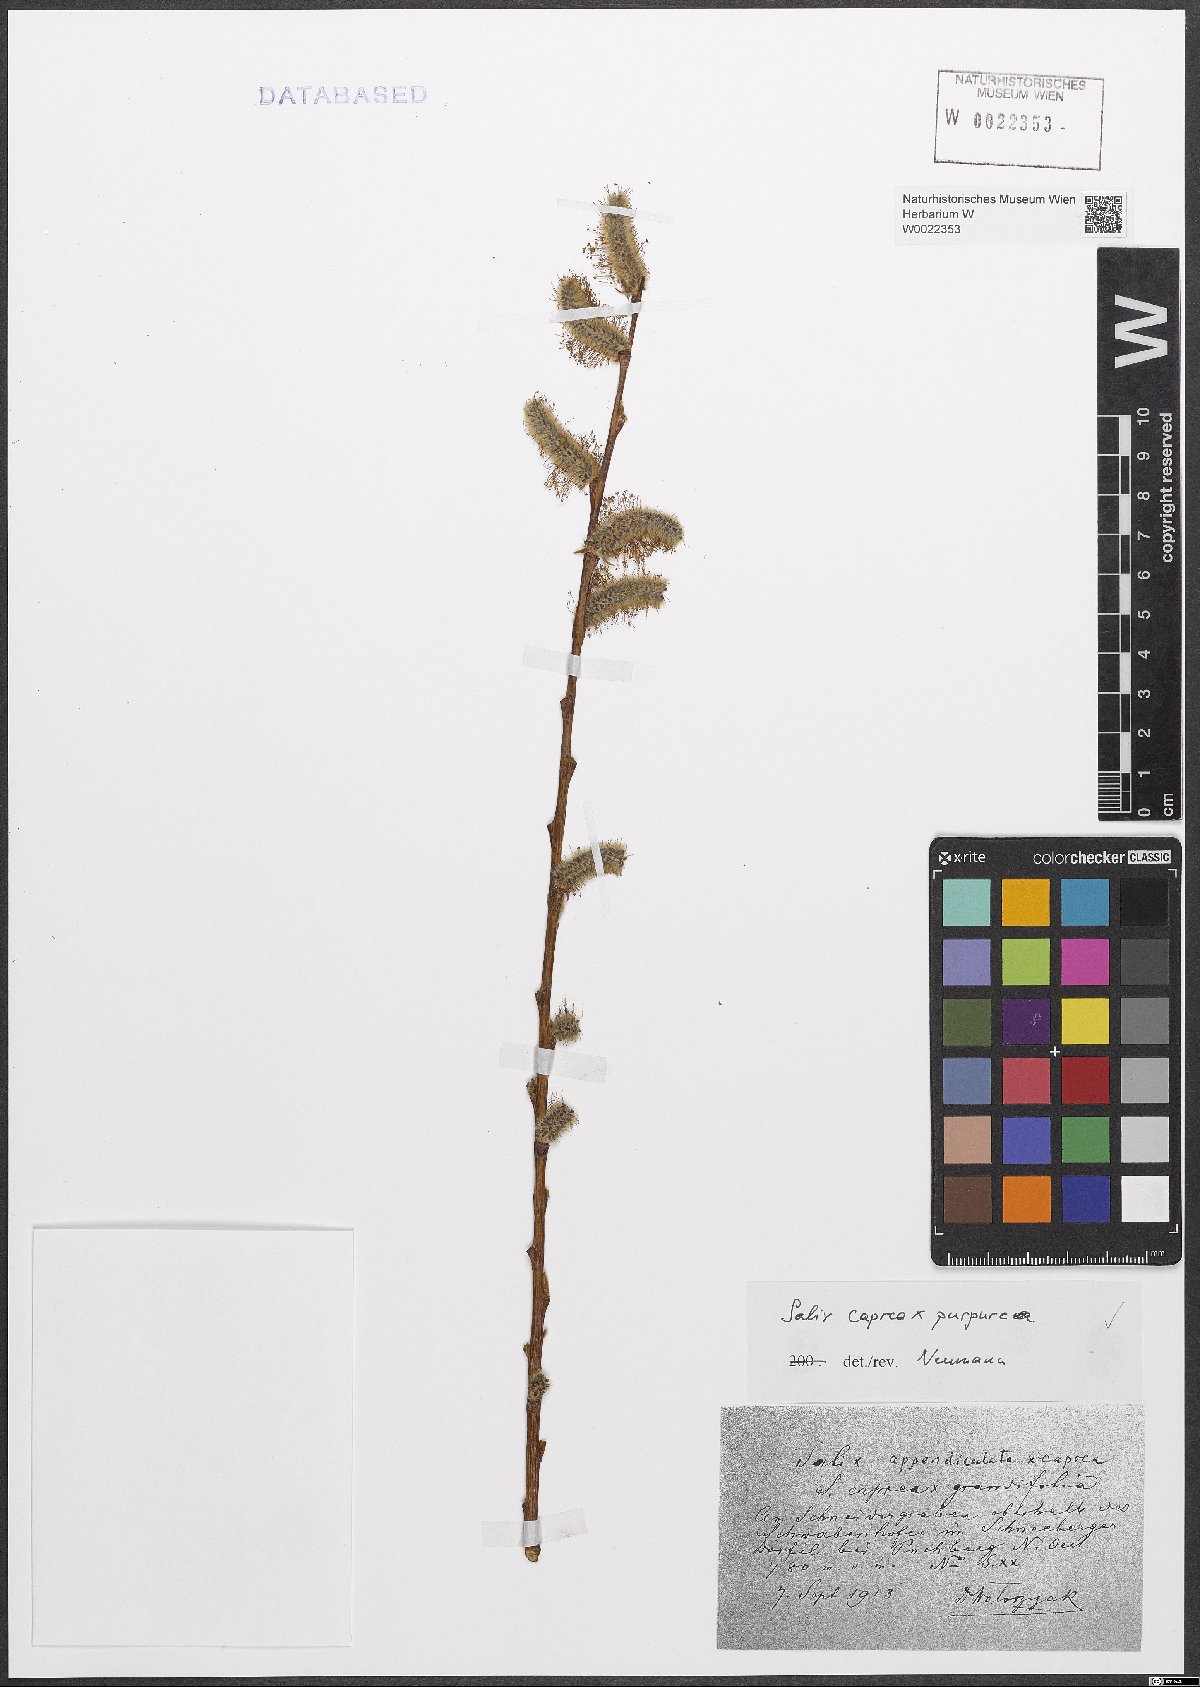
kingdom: Plantae
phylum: Tracheophyta
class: Magnoliopsida
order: Malpighiales
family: Salicaceae
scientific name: Salicaceae
